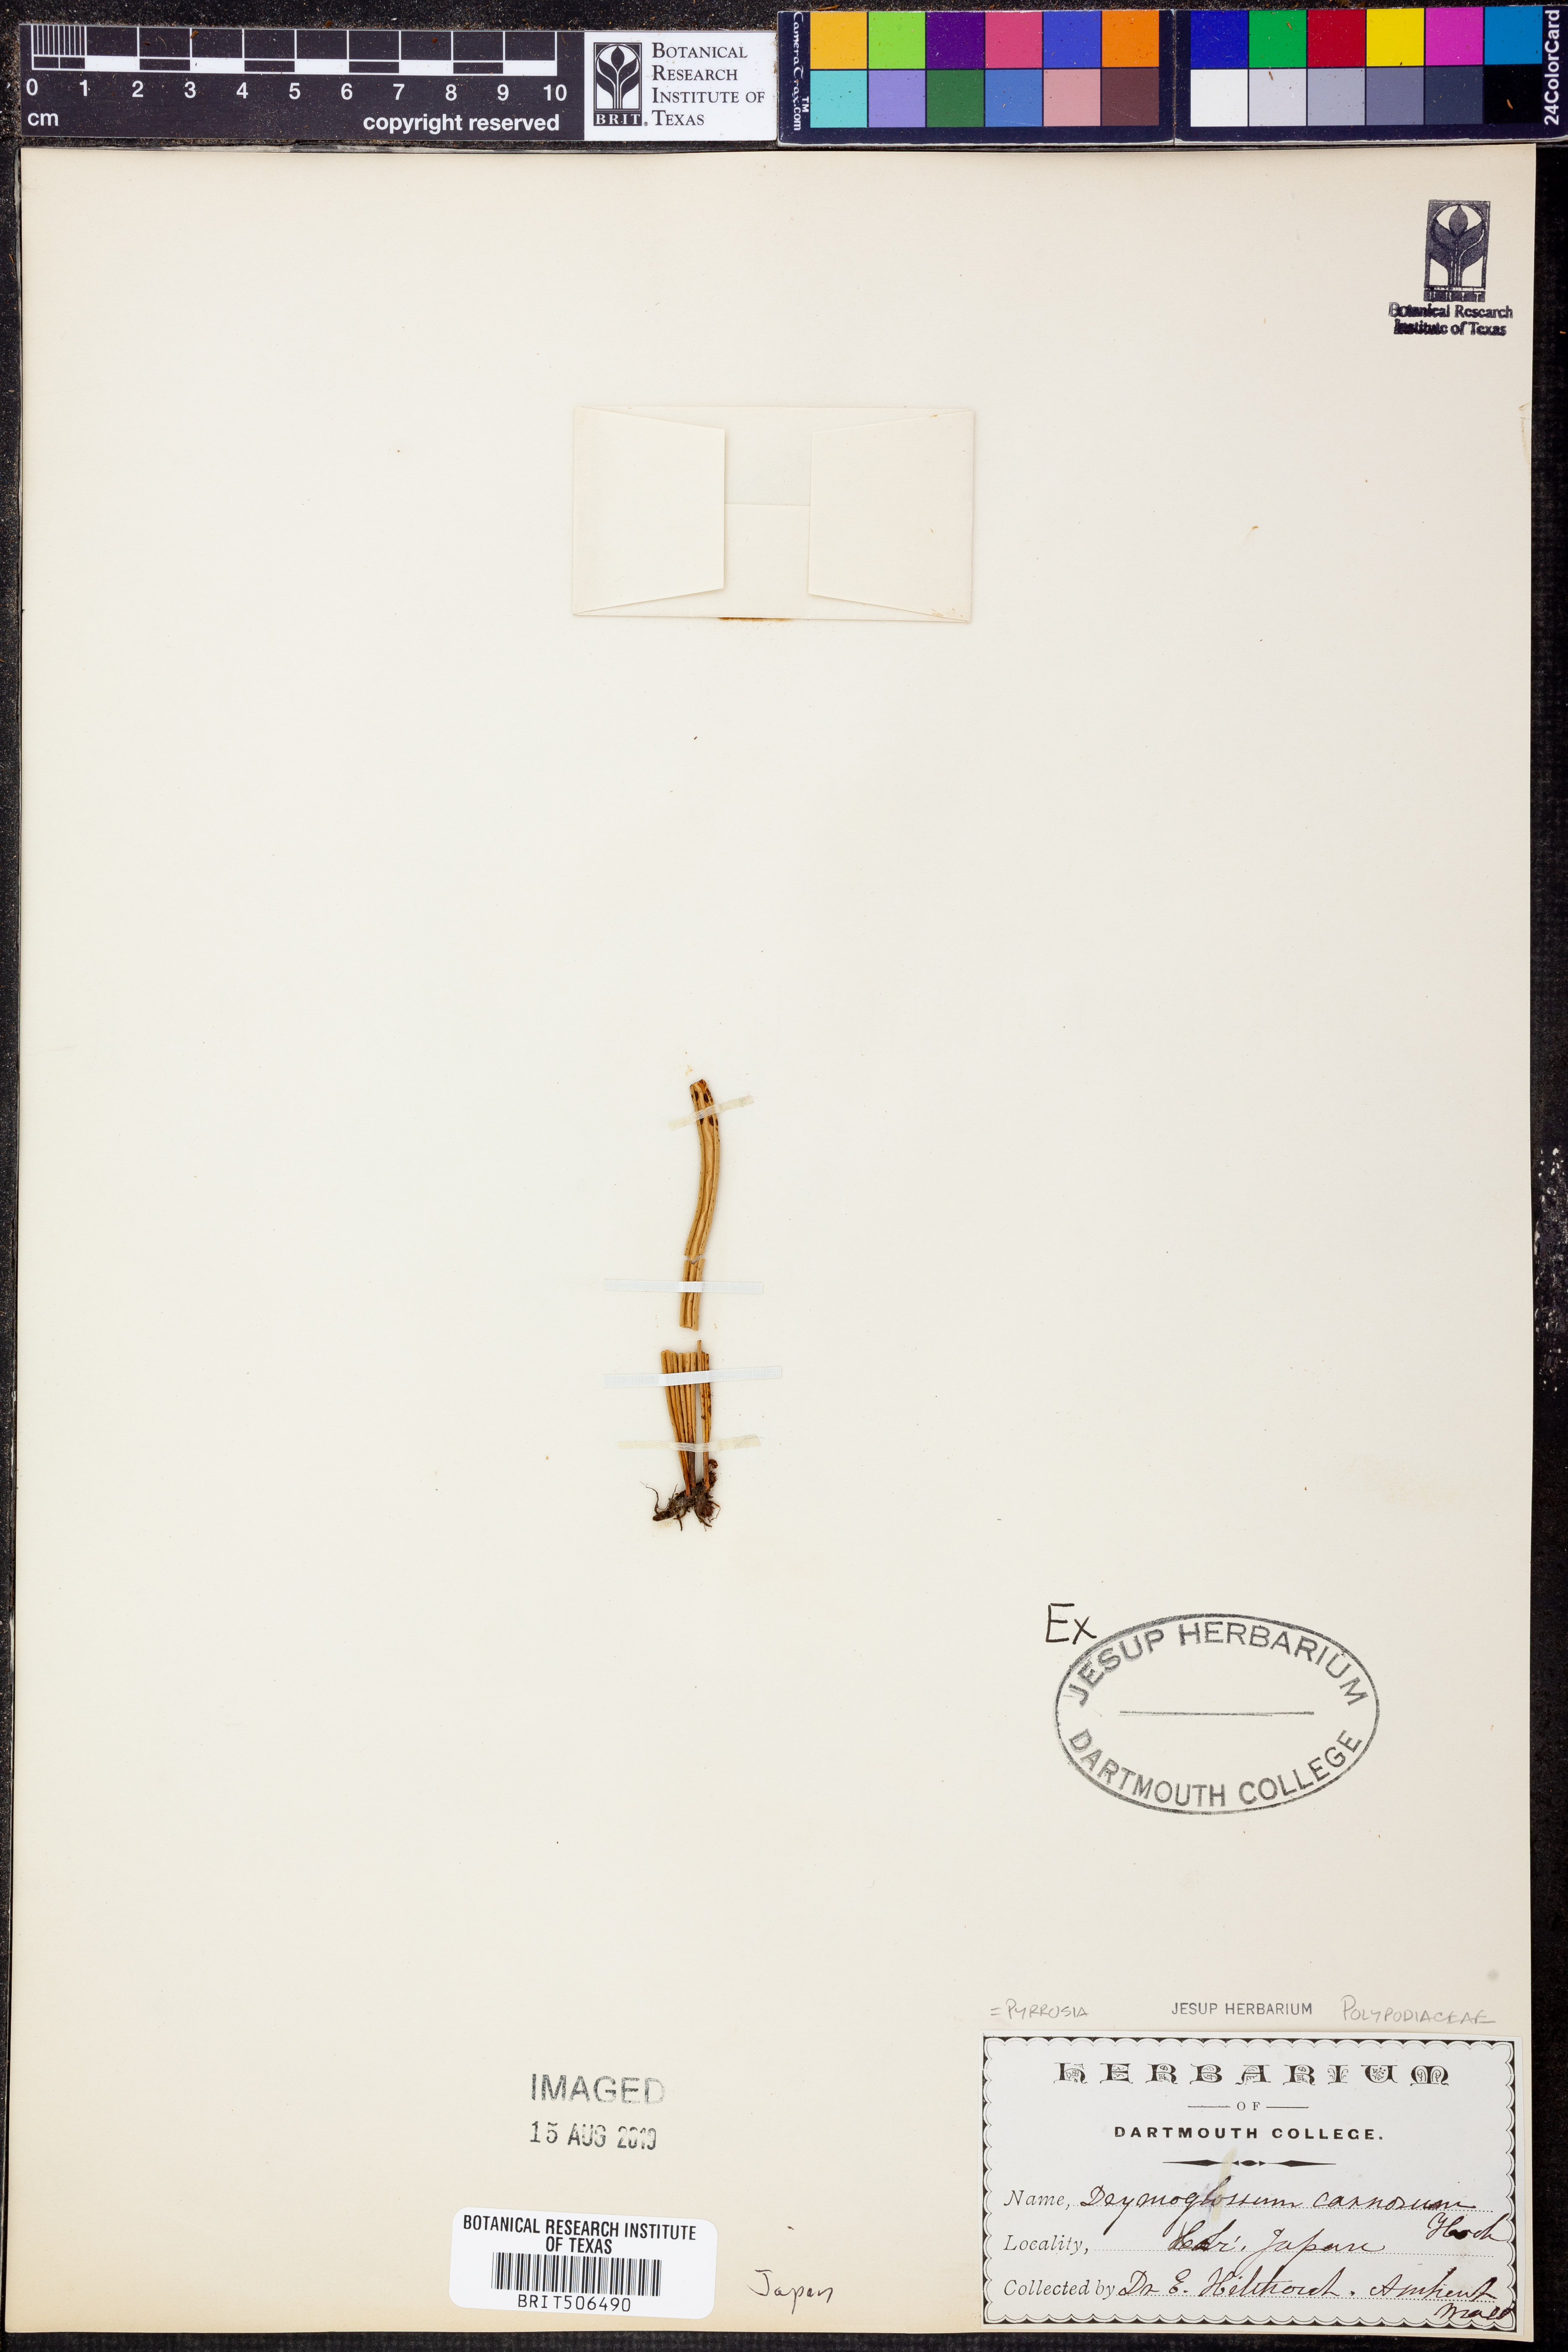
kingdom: Plantae
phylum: Tracheophyta
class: Polypodiopsida
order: Polypodiales
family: Polypodiaceae
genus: Lepisorus
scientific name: Lepisorus carnosus
